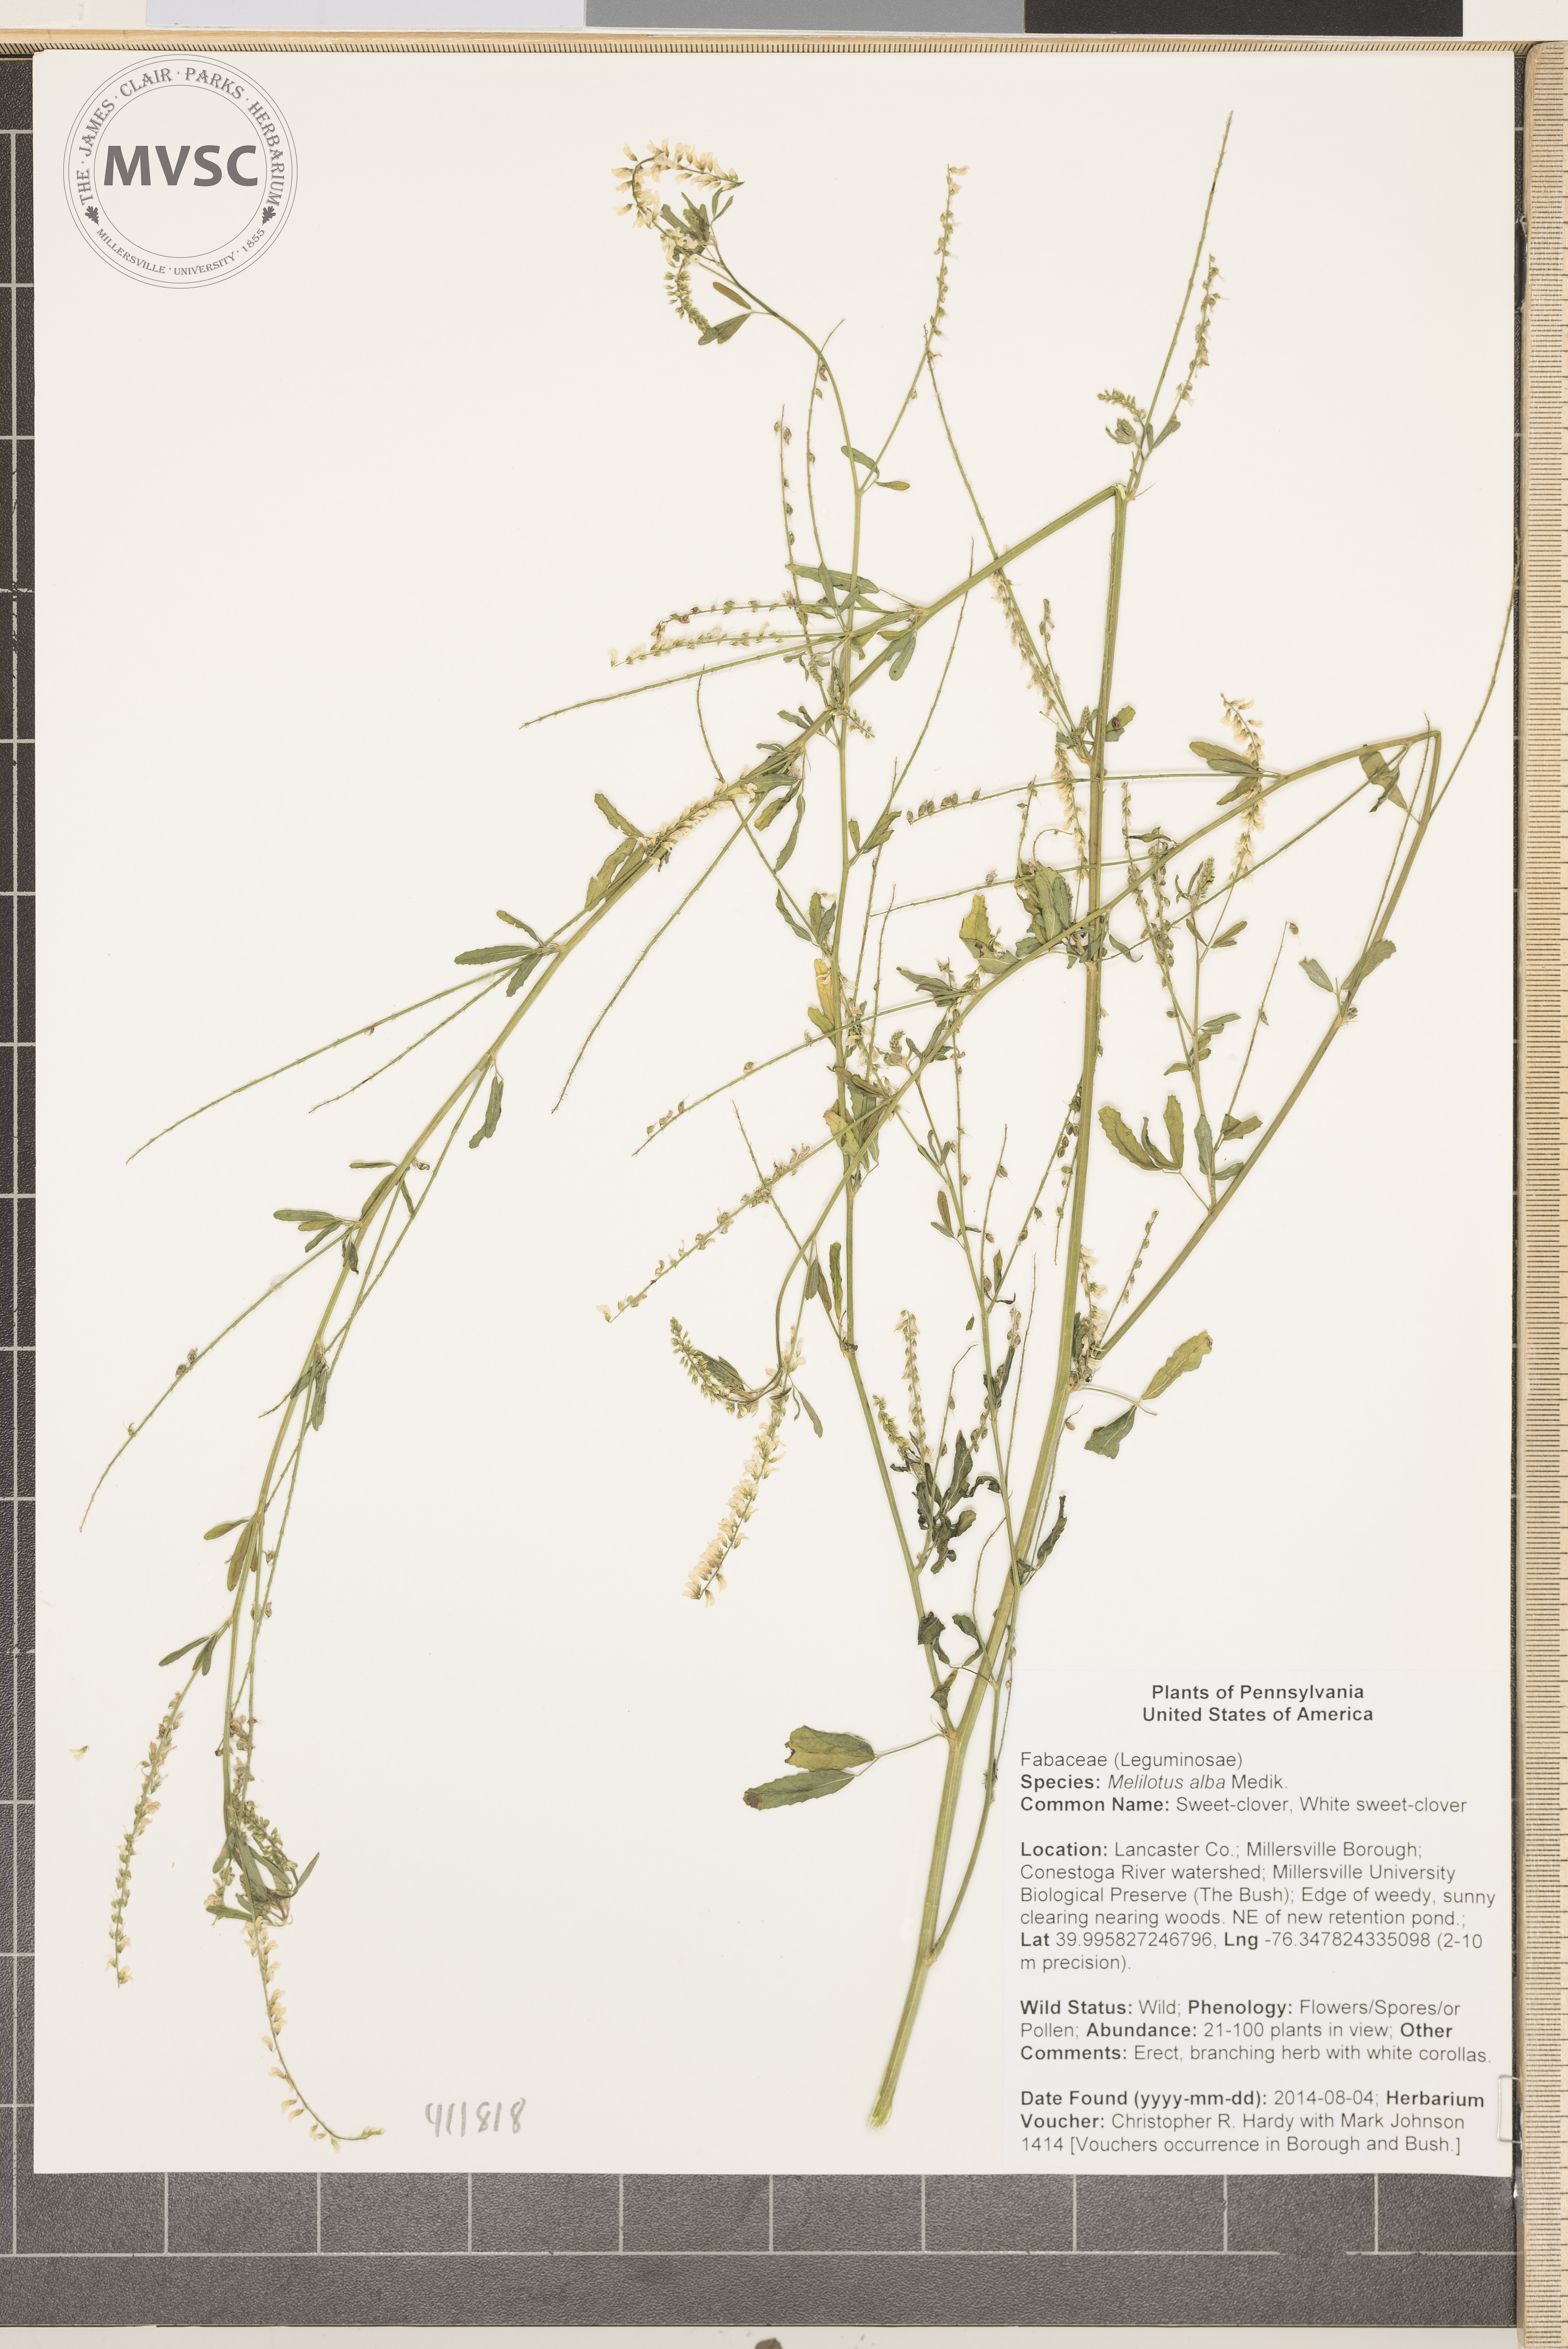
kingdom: Plantae
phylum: Tracheophyta
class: Magnoliopsida
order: Fabales
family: Fabaceae
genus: Melilotus
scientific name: Melilotus albus
